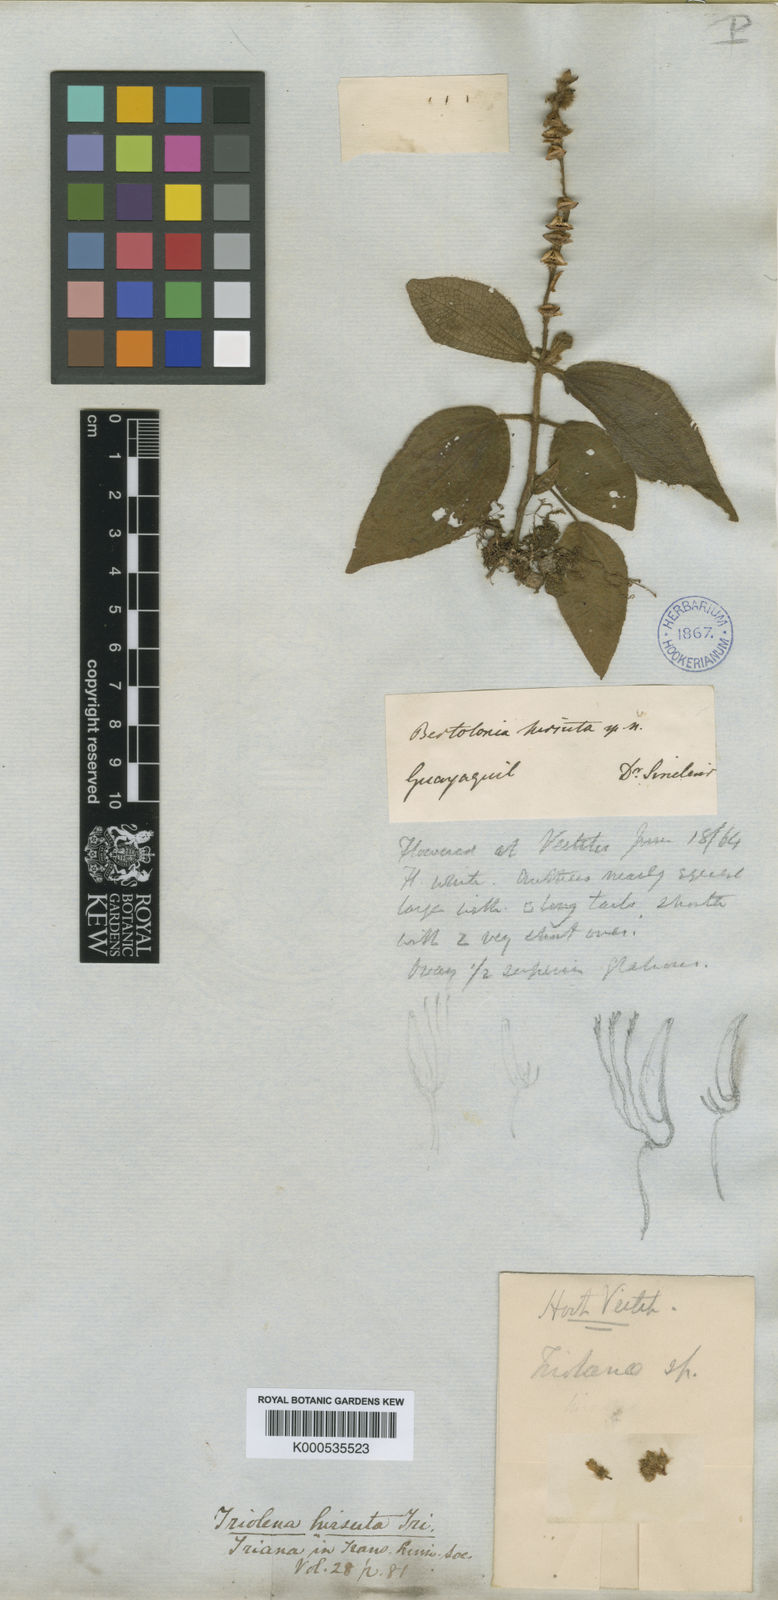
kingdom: Plantae
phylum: Tracheophyta
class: Magnoliopsida
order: Myrtales
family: Melastomataceae
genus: Triolena
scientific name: Triolena hirsuta
